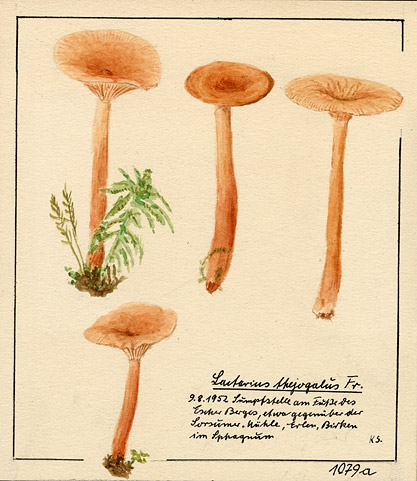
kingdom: Fungi
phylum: Basidiomycota
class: Agaricomycetes
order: Russulales
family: Russulaceae
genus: Lactarius
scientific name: Lactarius tabidus
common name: Birch milkcap
